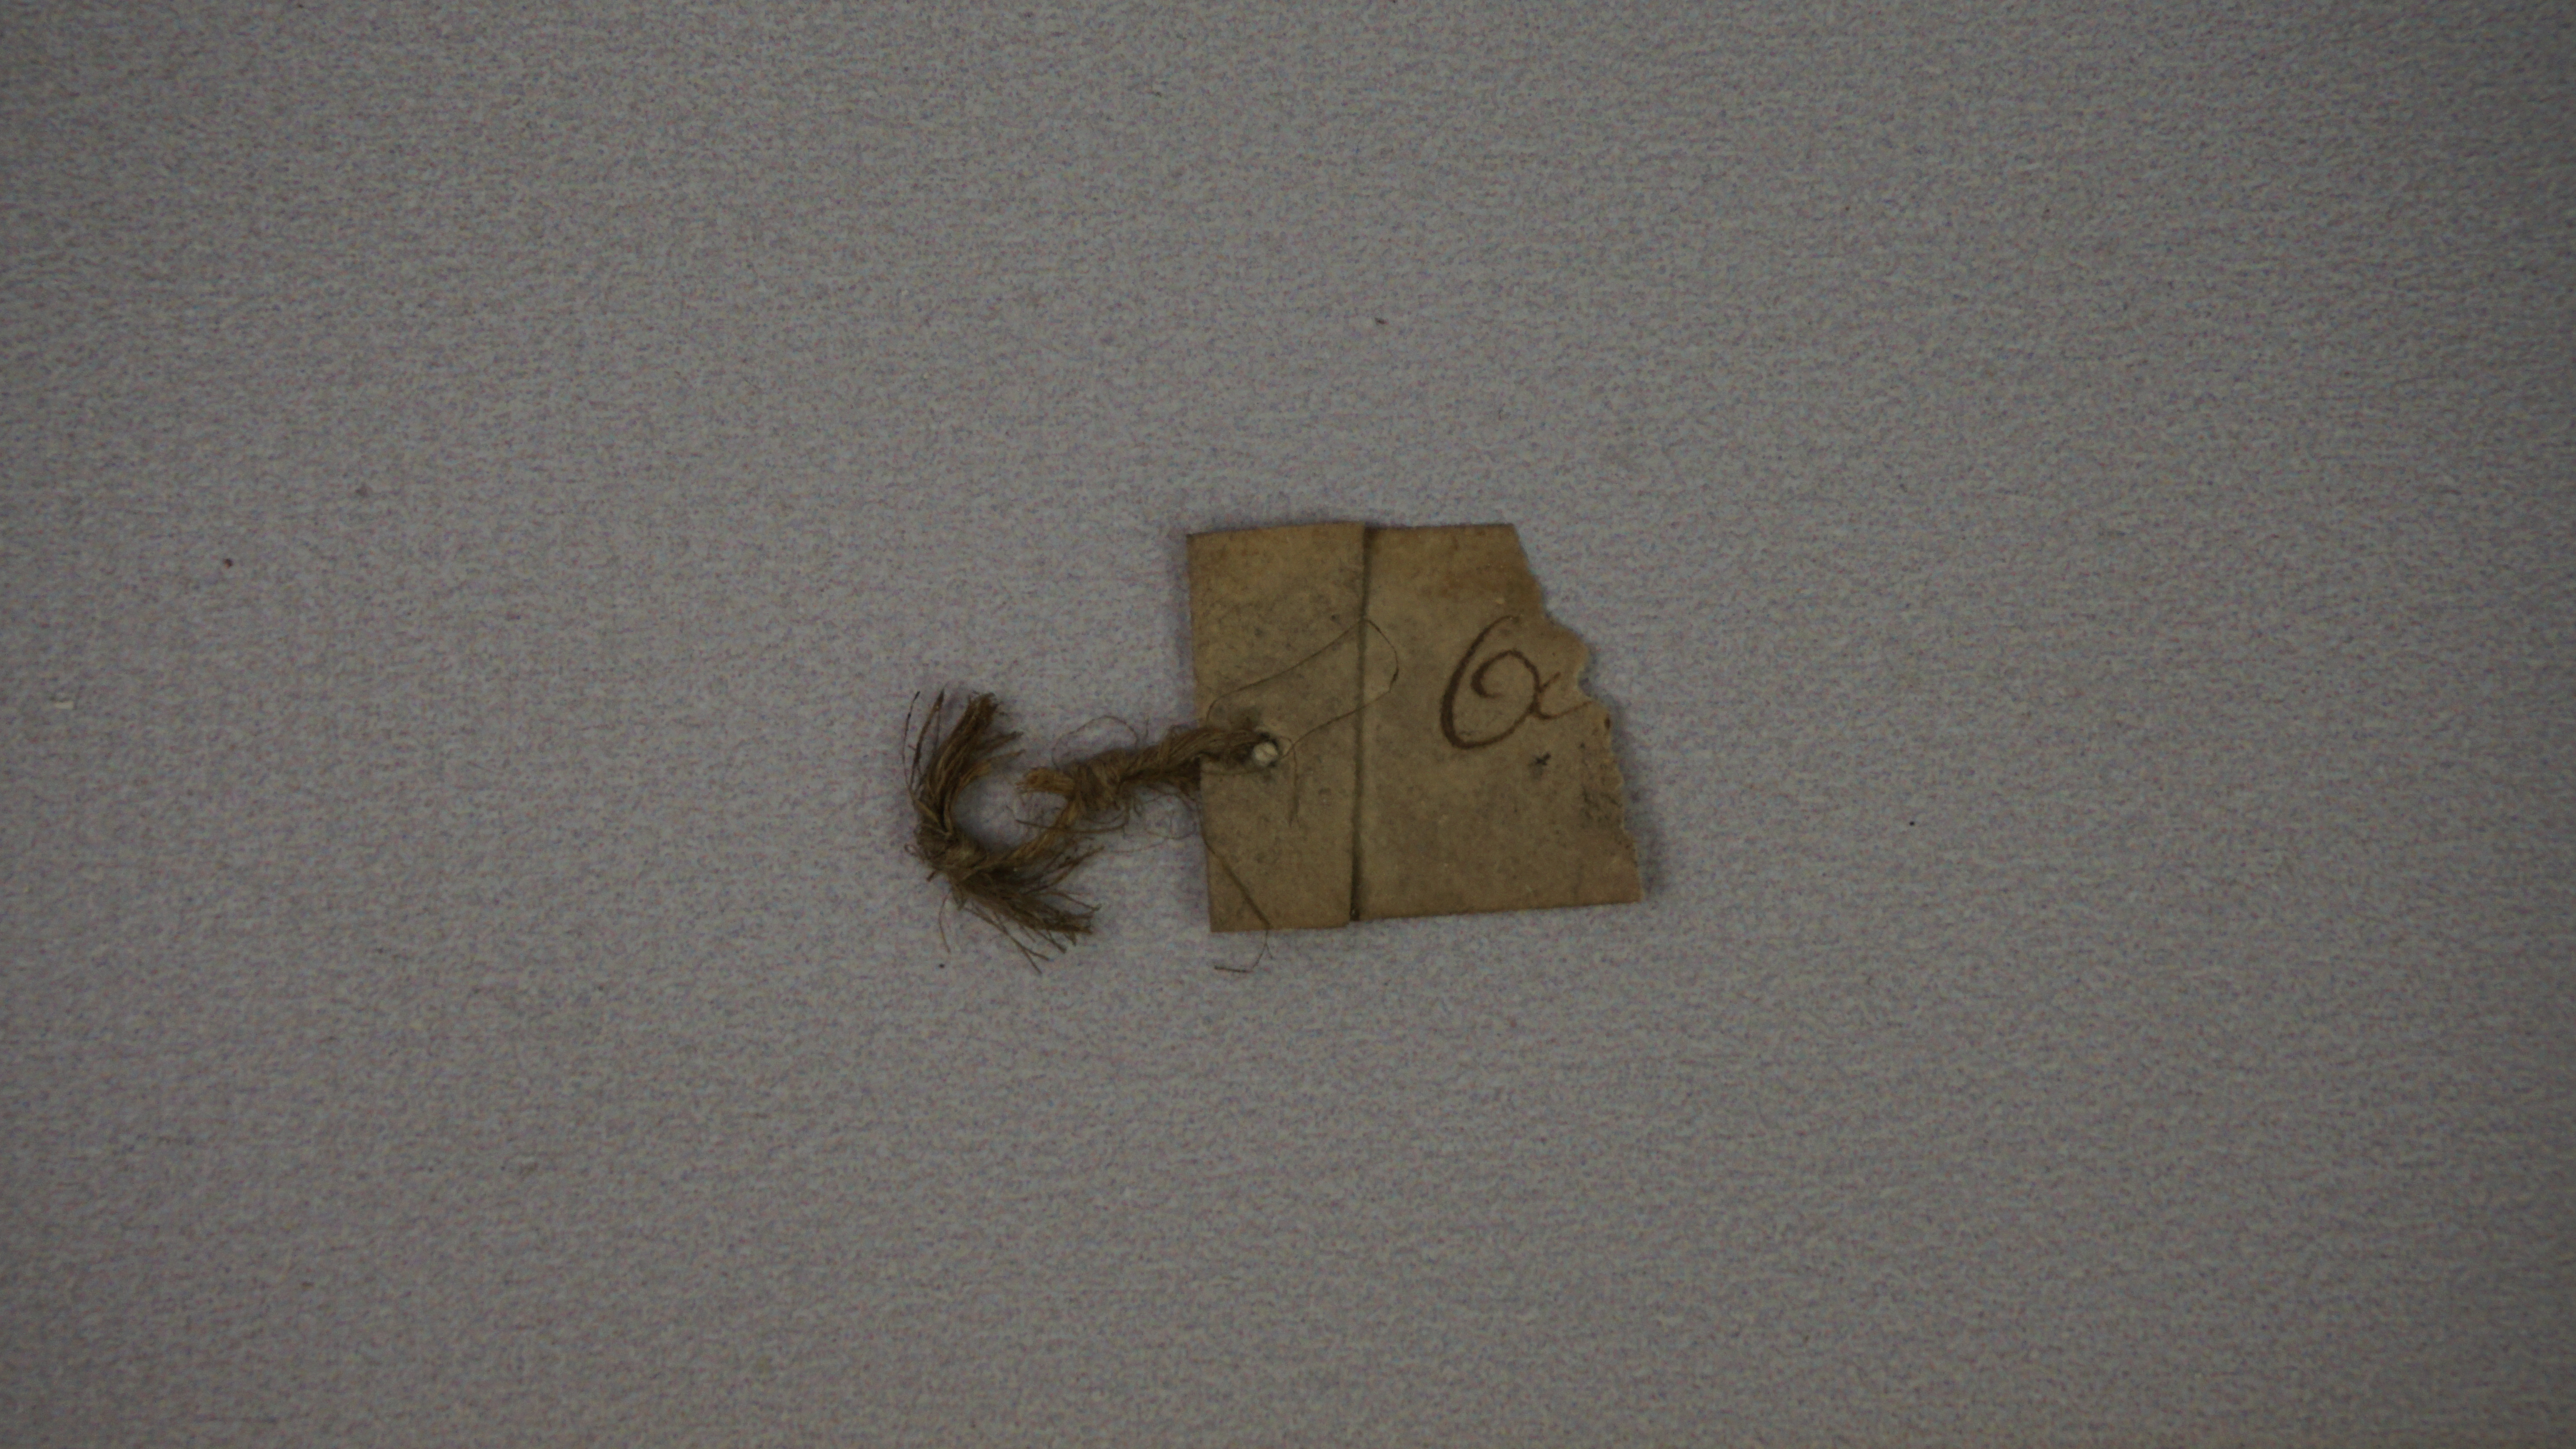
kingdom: Animalia
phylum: Chordata
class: Aves
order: Psittaciformes
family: Psittacidae
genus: Agapornis
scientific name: Agapornis taranta
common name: Black-winged lovebird
